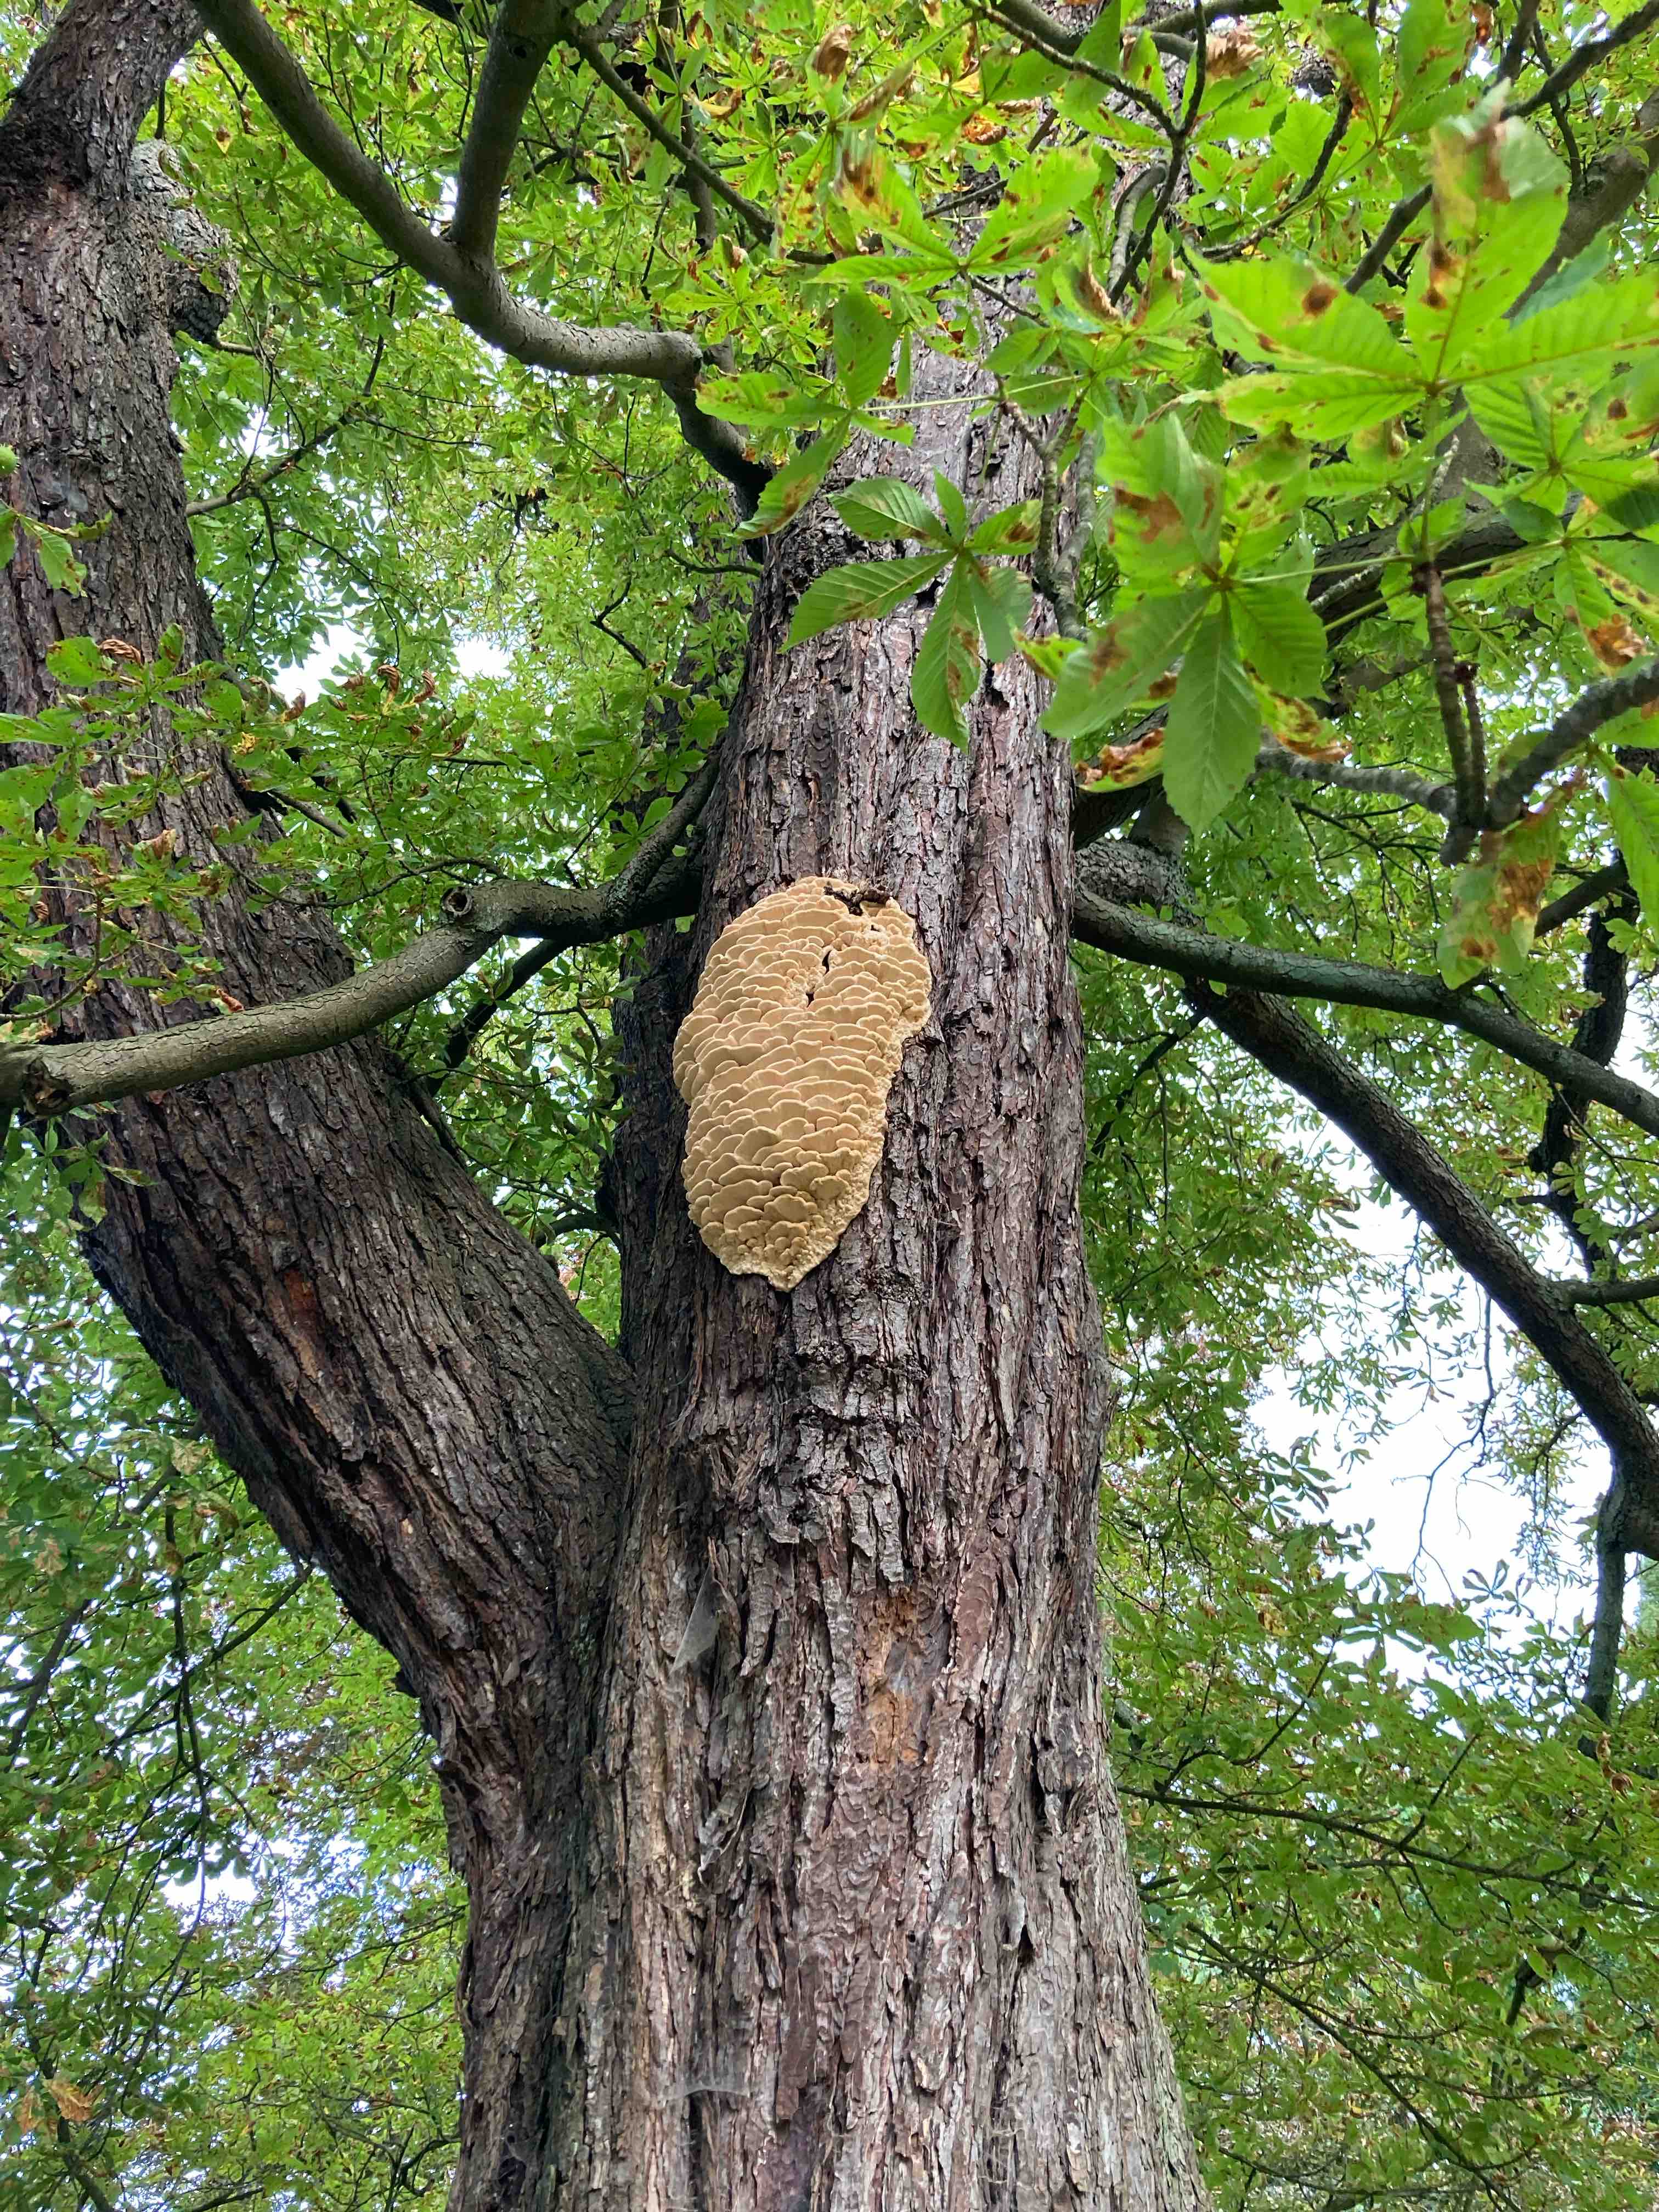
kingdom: Fungi
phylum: Basidiomycota
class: Agaricomycetes
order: Polyporales
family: Meruliaceae
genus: Climacodon
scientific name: Climacodon septentrionalis
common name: kæmpepigsvamp
